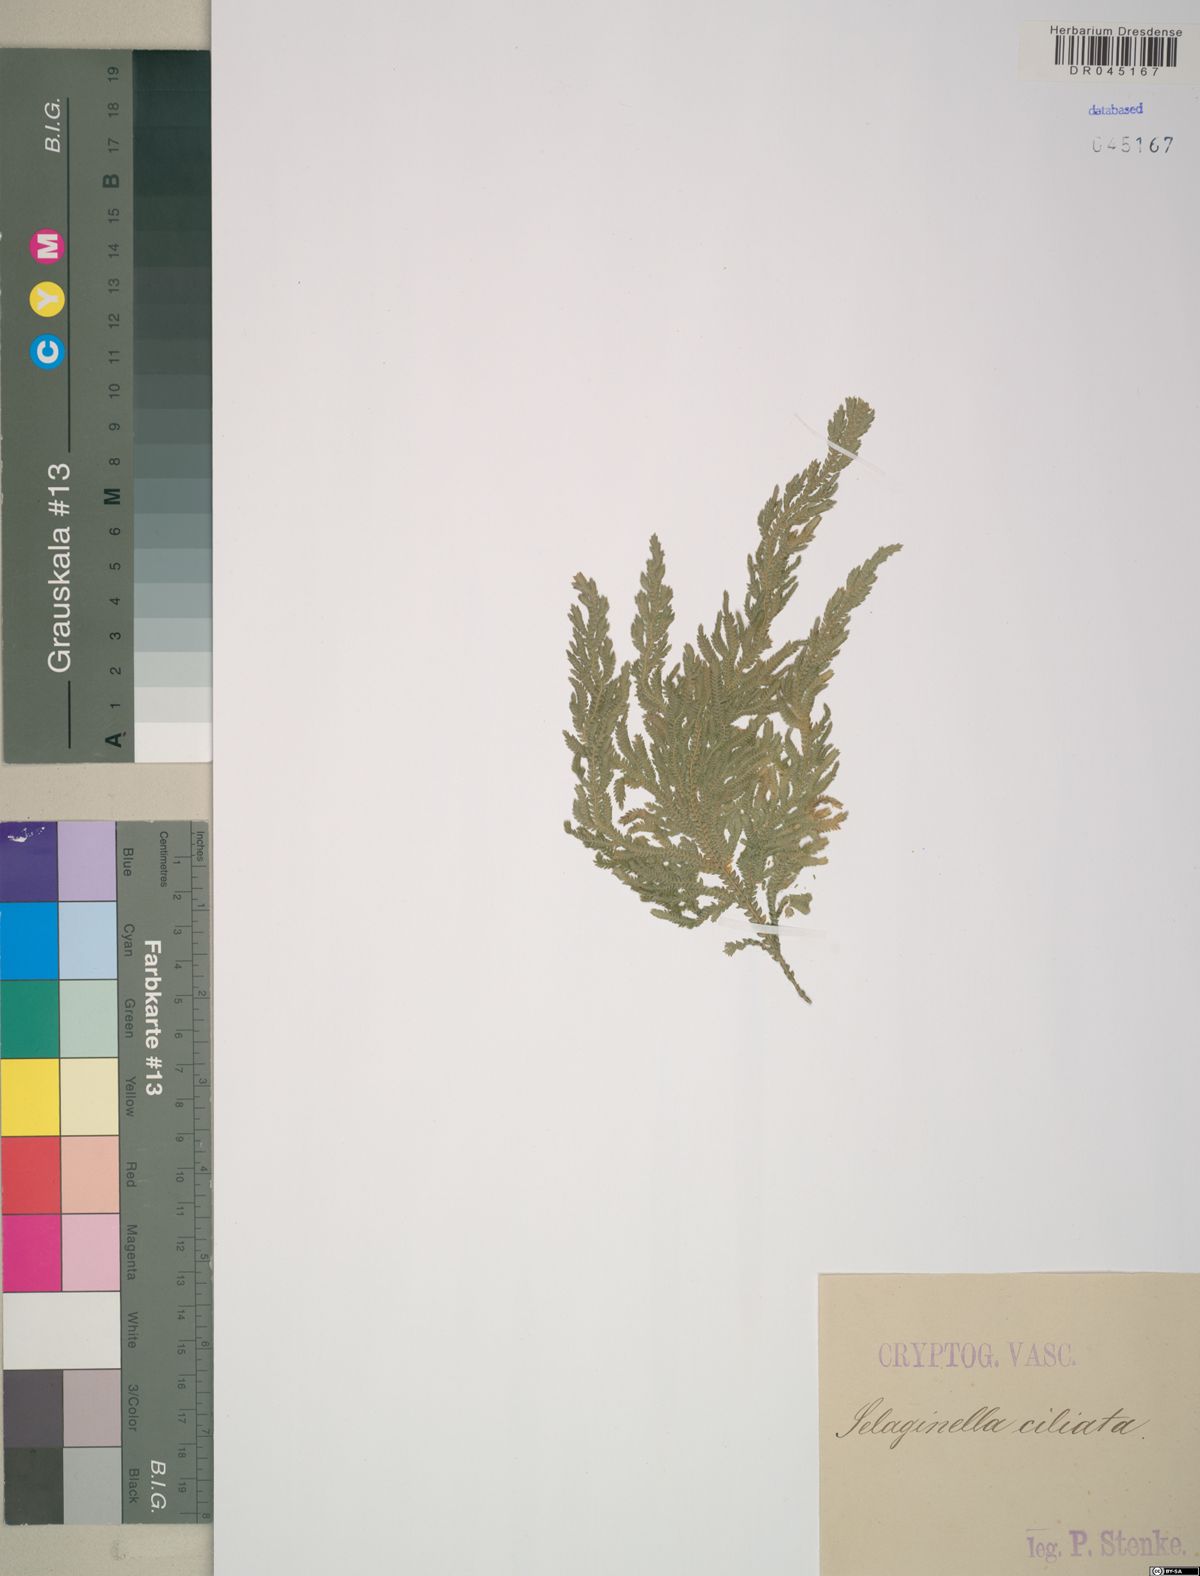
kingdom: Plantae
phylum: Tracheophyta
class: Lycopodiopsida
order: Selaginellales
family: Selaginellaceae
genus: Selaginella
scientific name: Selaginella
